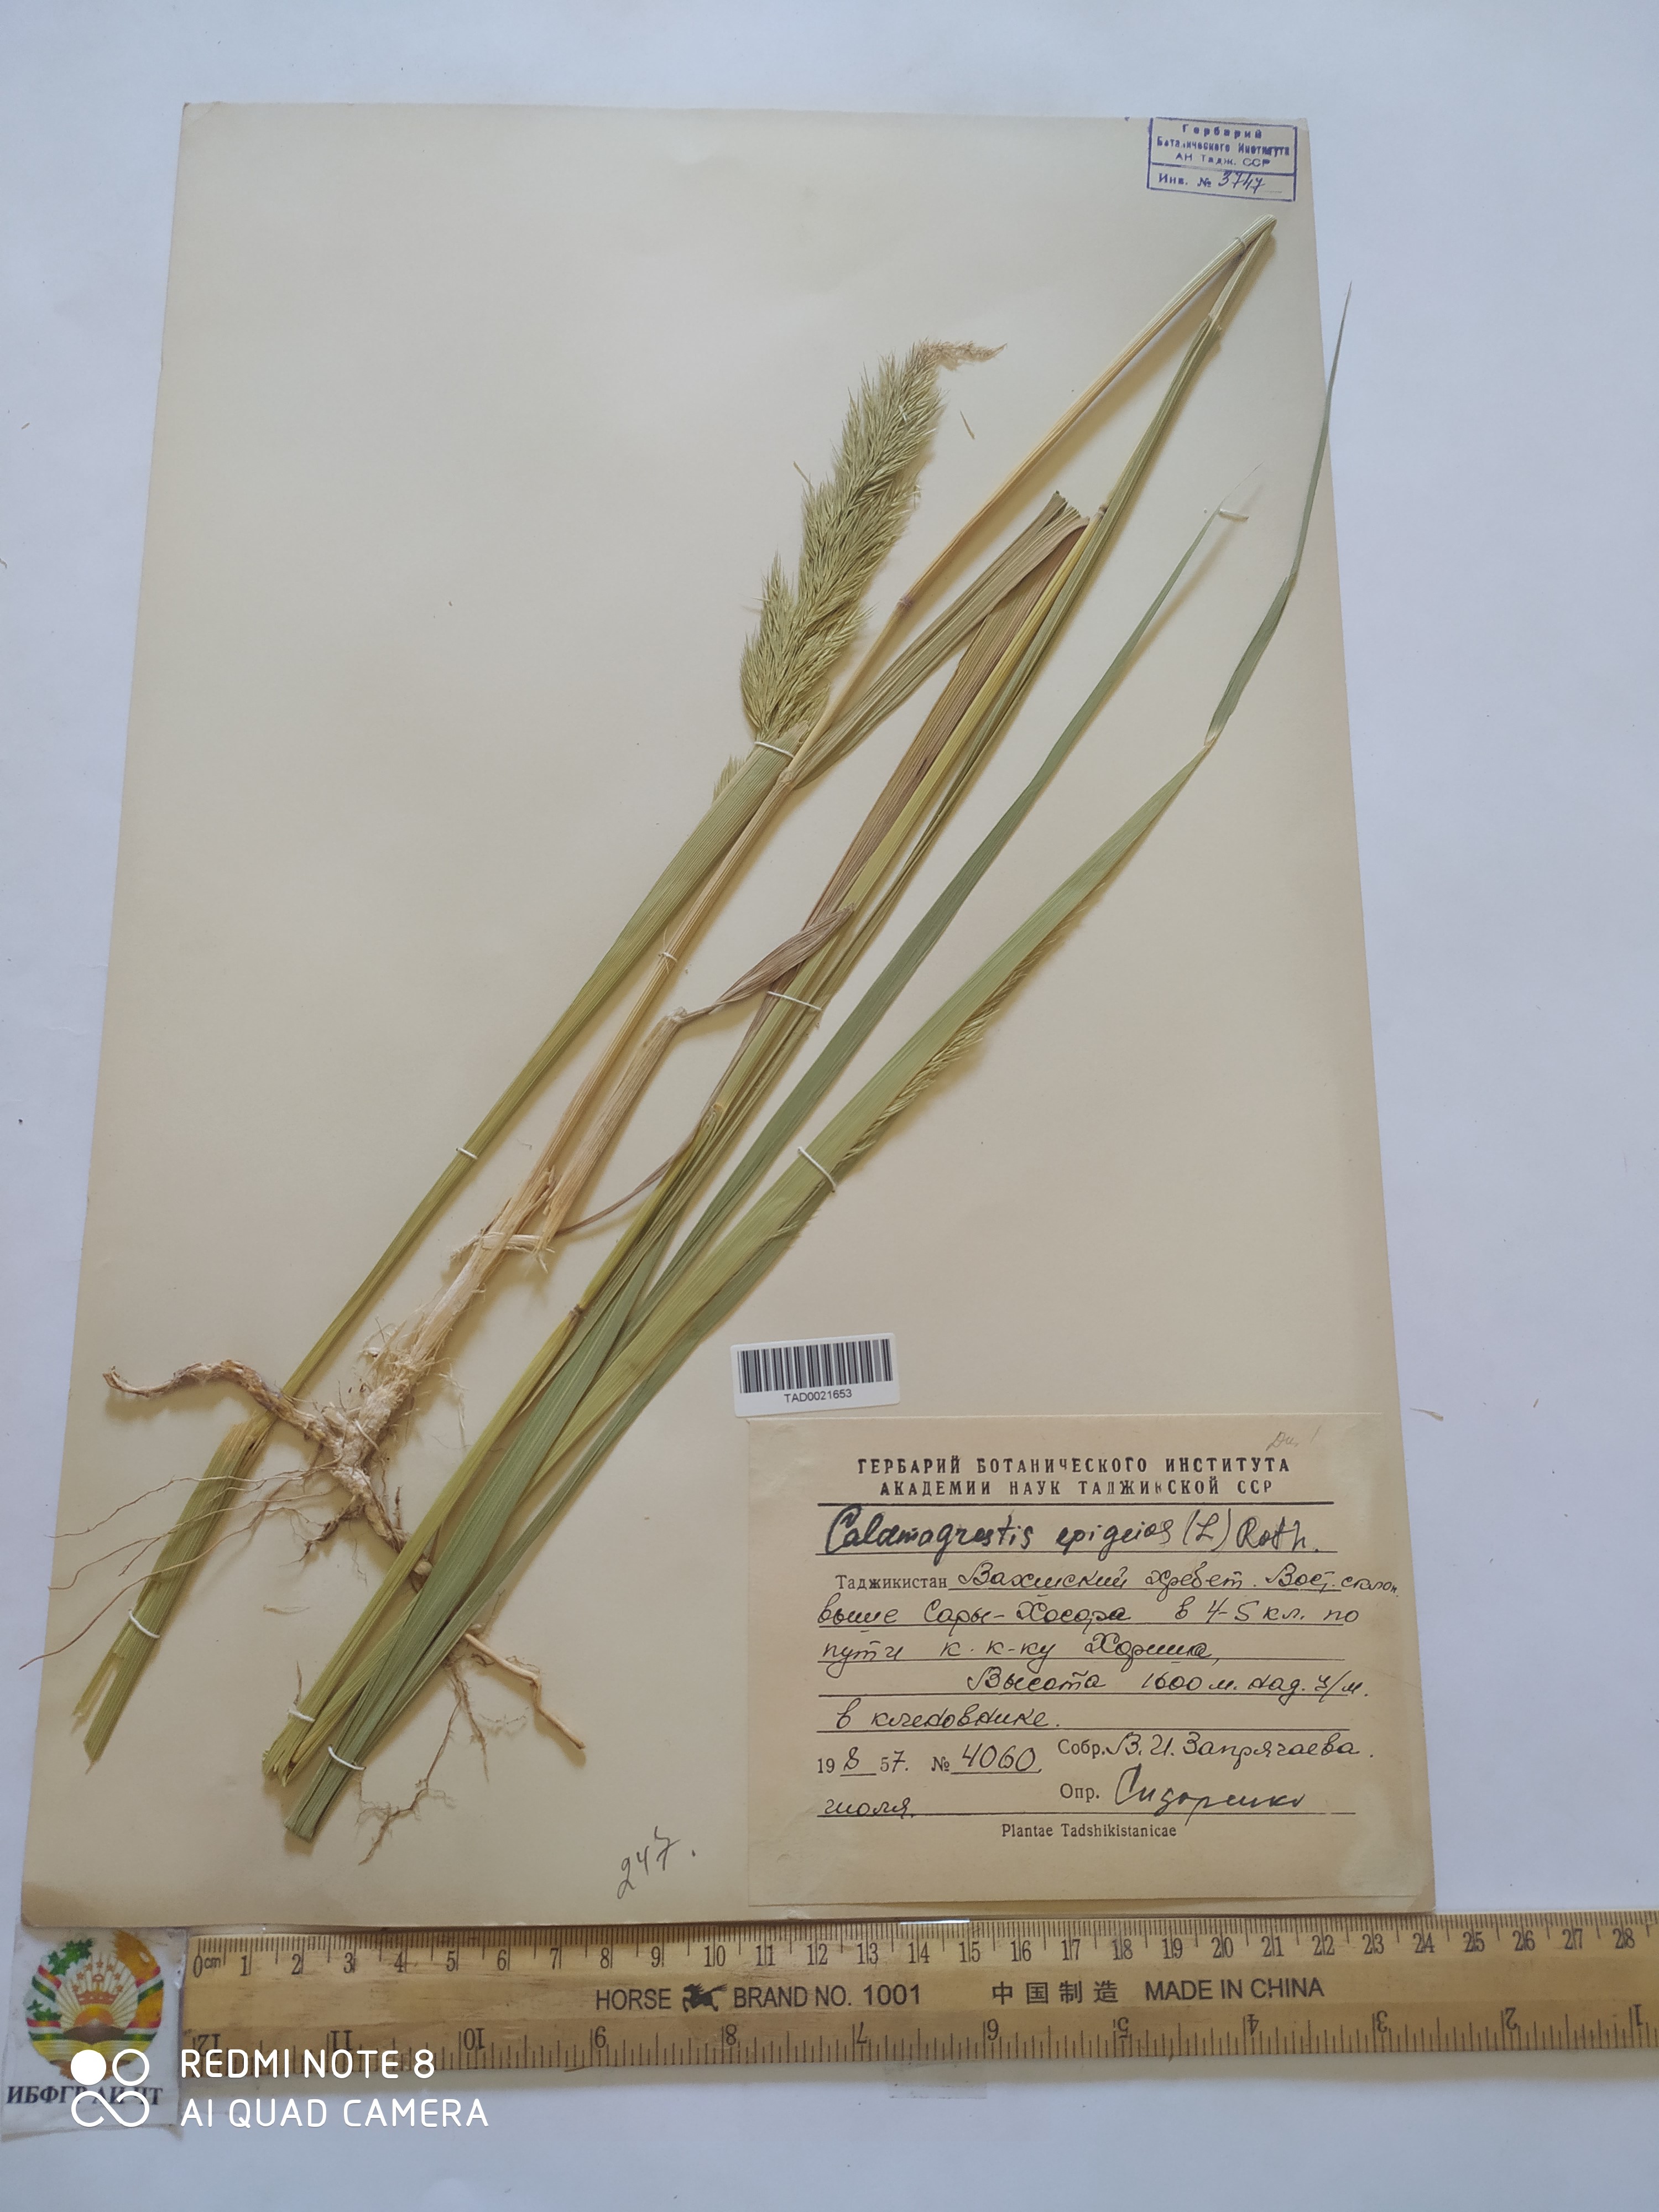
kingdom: Plantae
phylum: Tracheophyta
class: Liliopsida
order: Poales
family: Poaceae
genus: Calamagrostis
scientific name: Calamagrostis epigejos
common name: Wood small-reed
